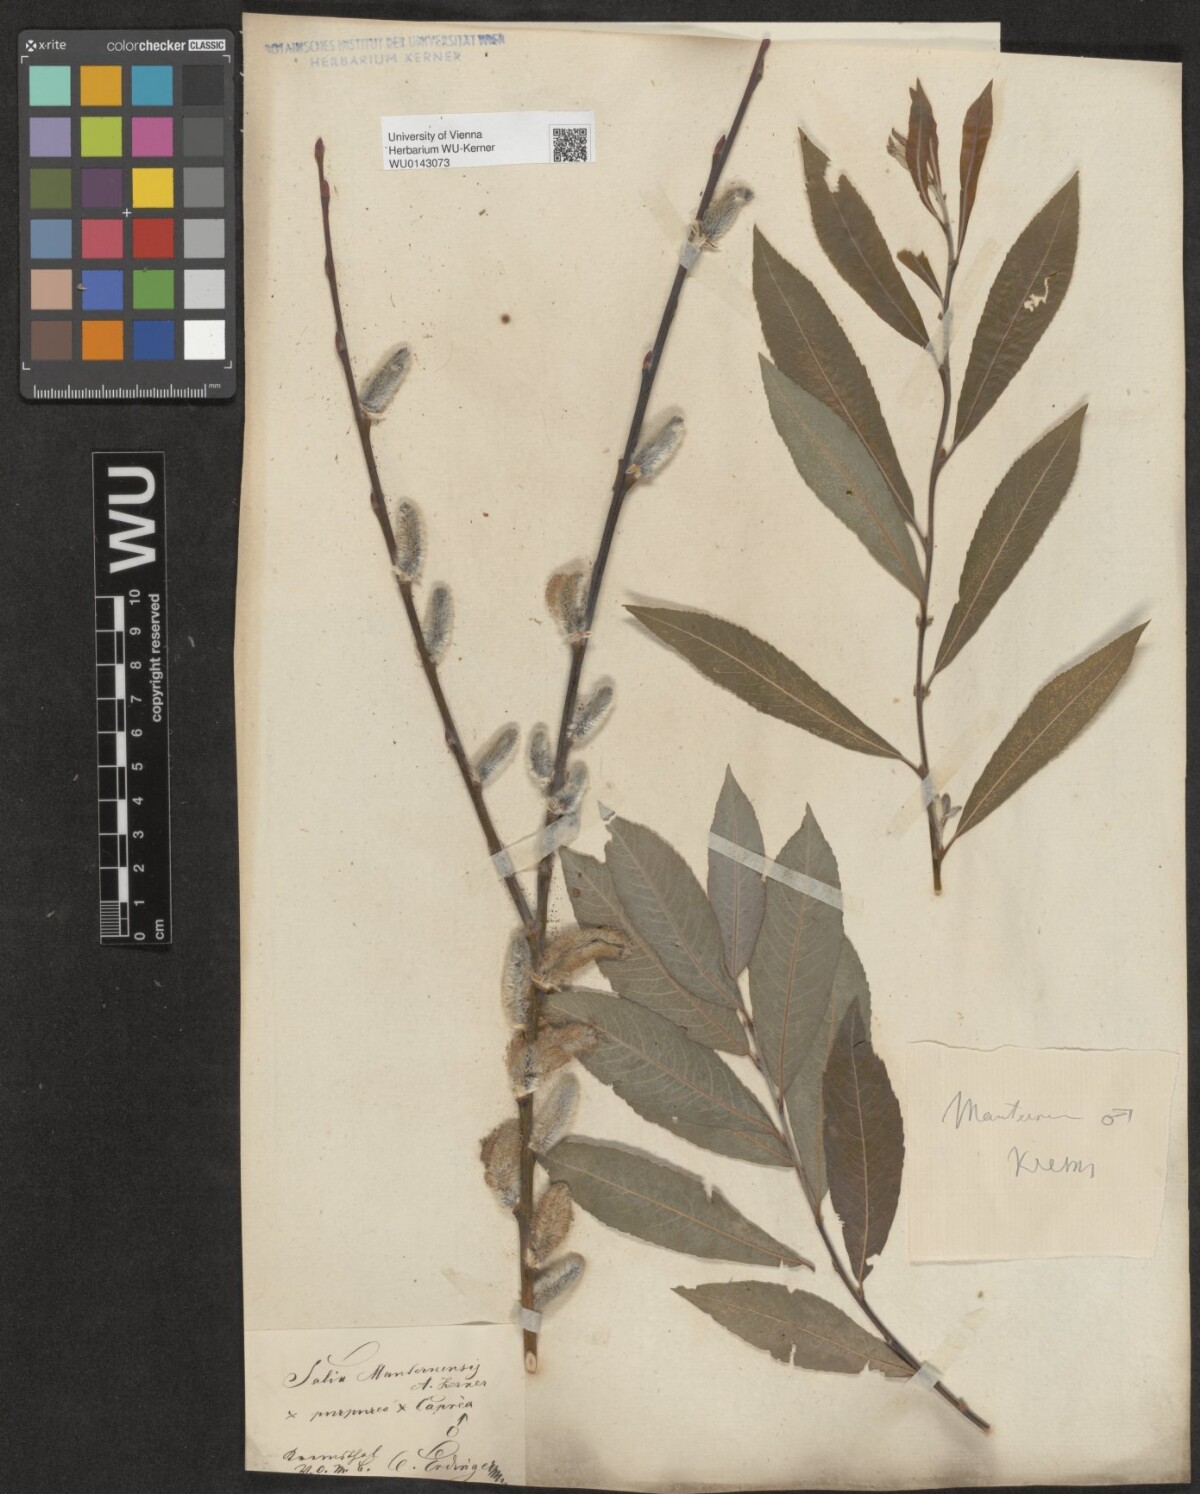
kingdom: Plantae
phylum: Tracheophyta
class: Magnoliopsida
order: Malpighiales
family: Salicaceae
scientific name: Salicaceae
